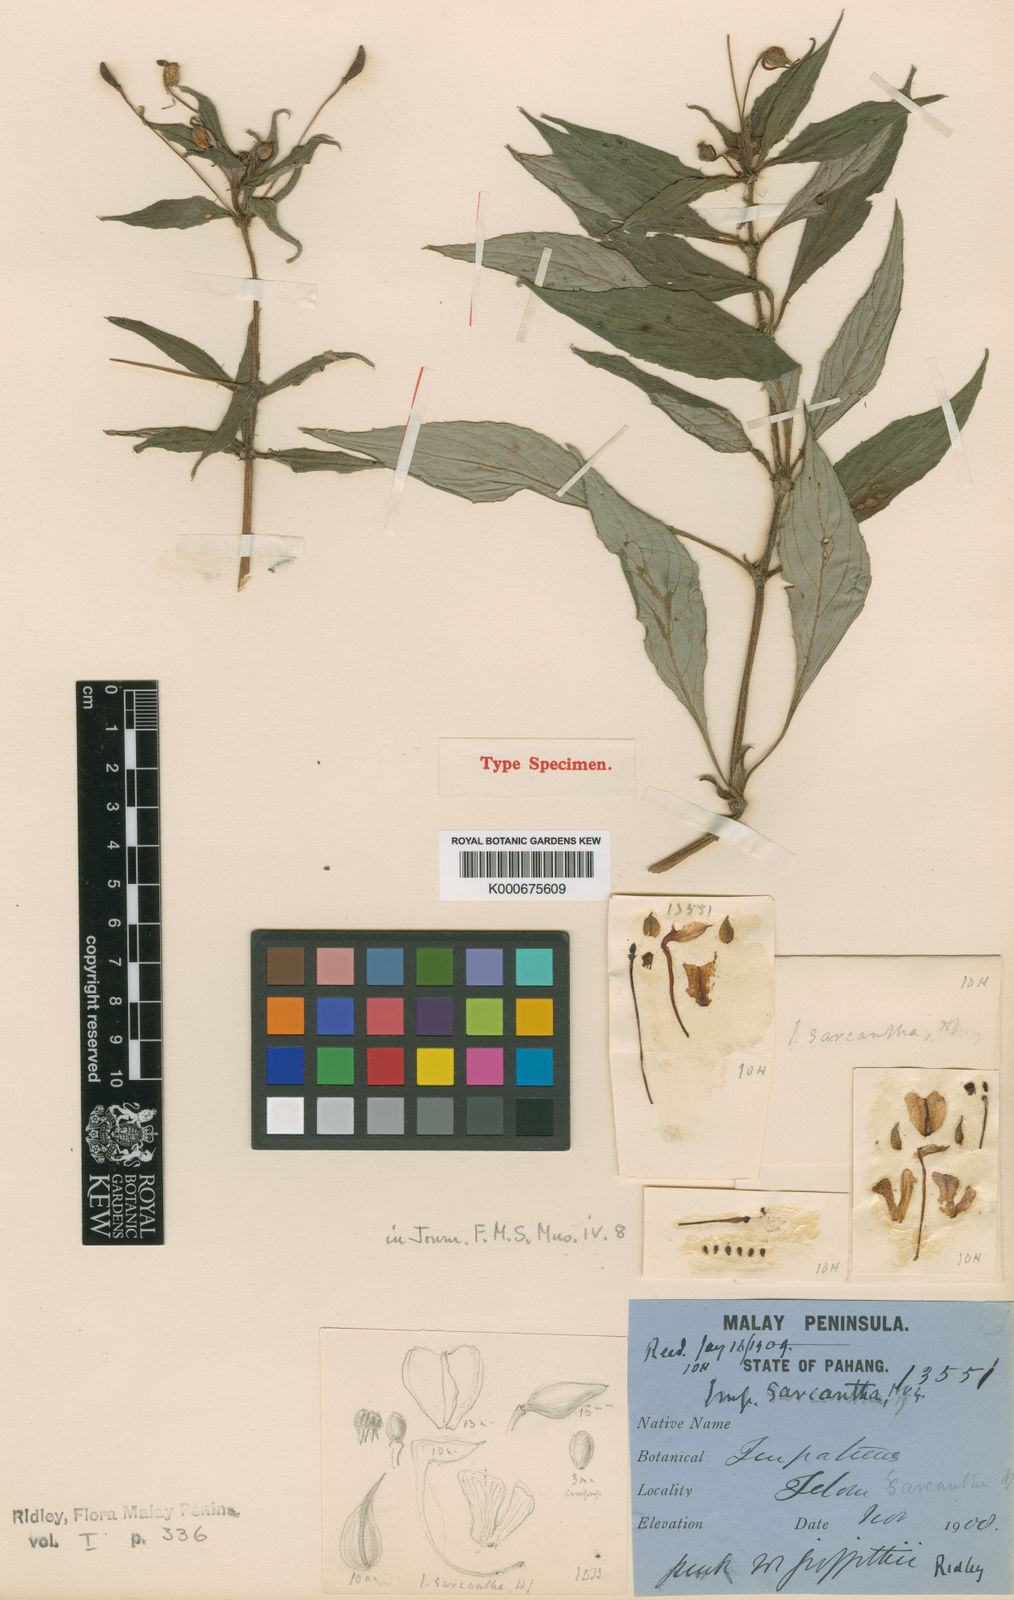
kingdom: Plantae
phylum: Tracheophyta
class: Magnoliopsida
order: Ericales
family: Balsaminaceae
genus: Impatiens
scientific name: Impatiens
